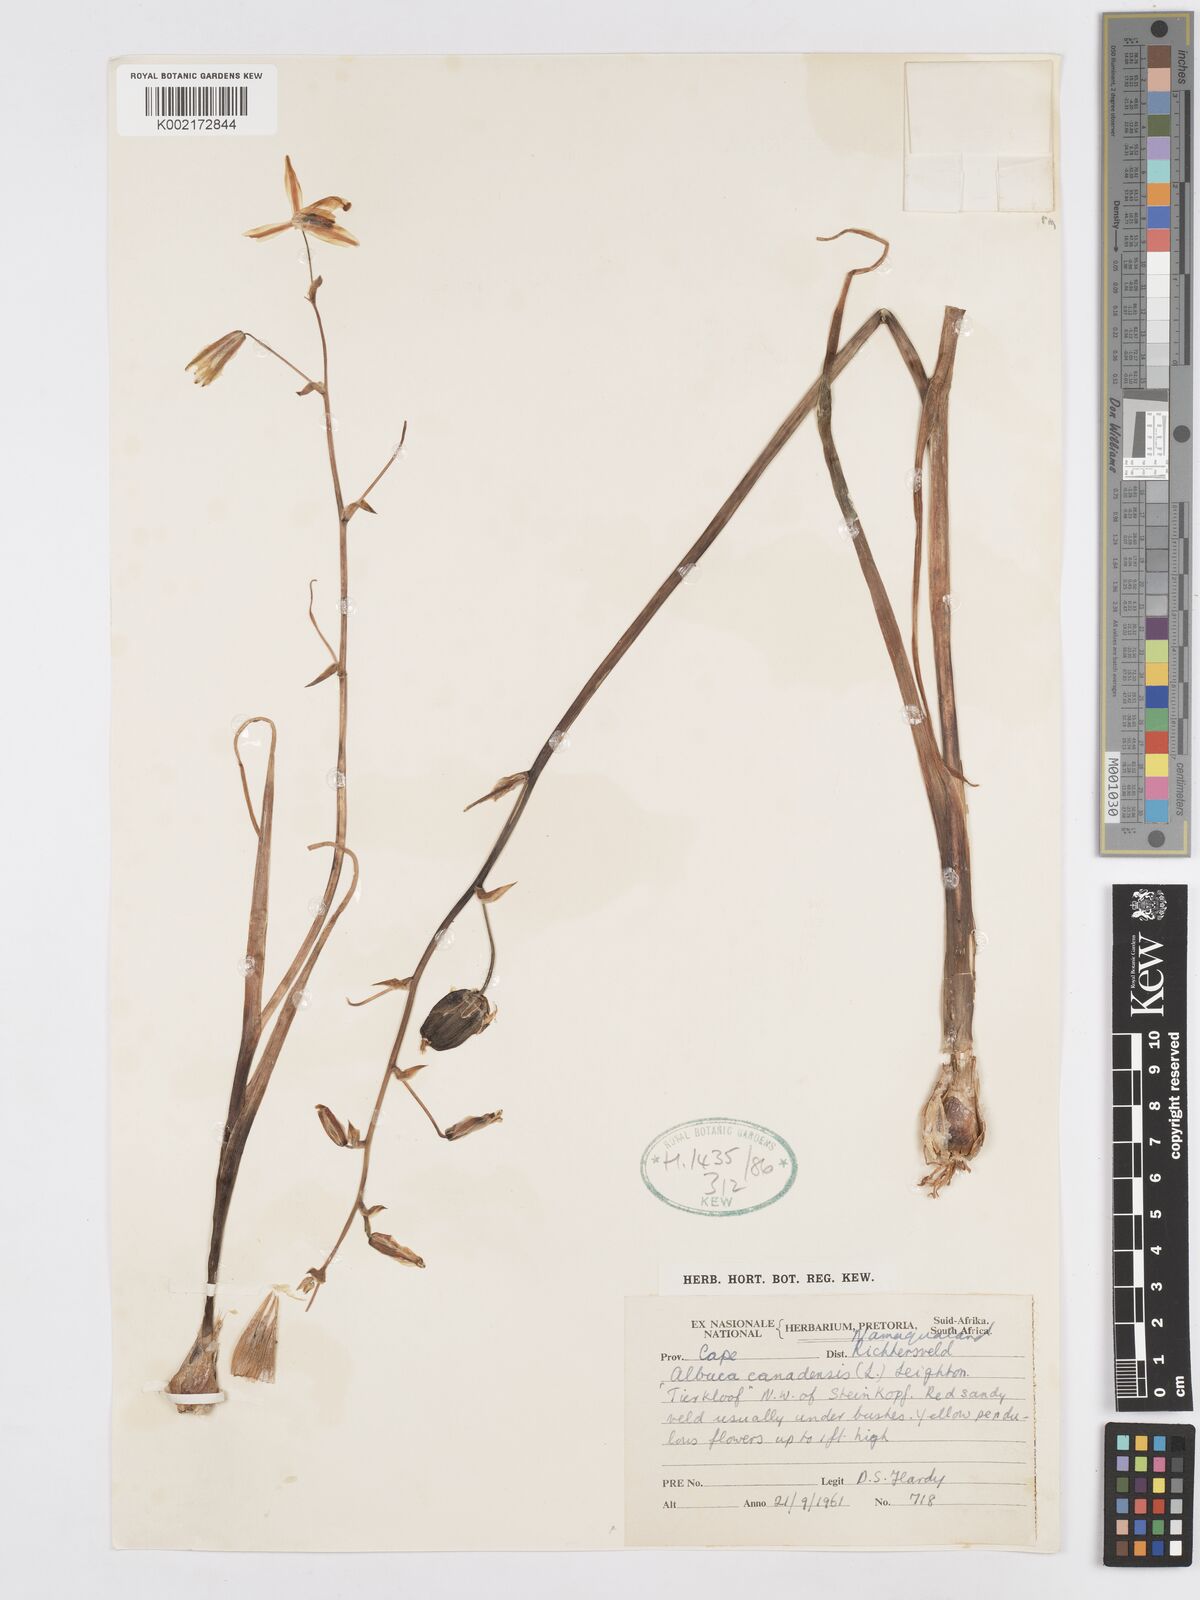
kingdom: Plantae
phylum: Tracheophyta
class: Liliopsida
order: Asparagales
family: Asparagaceae
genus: Albuca
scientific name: Albuca canadensis
